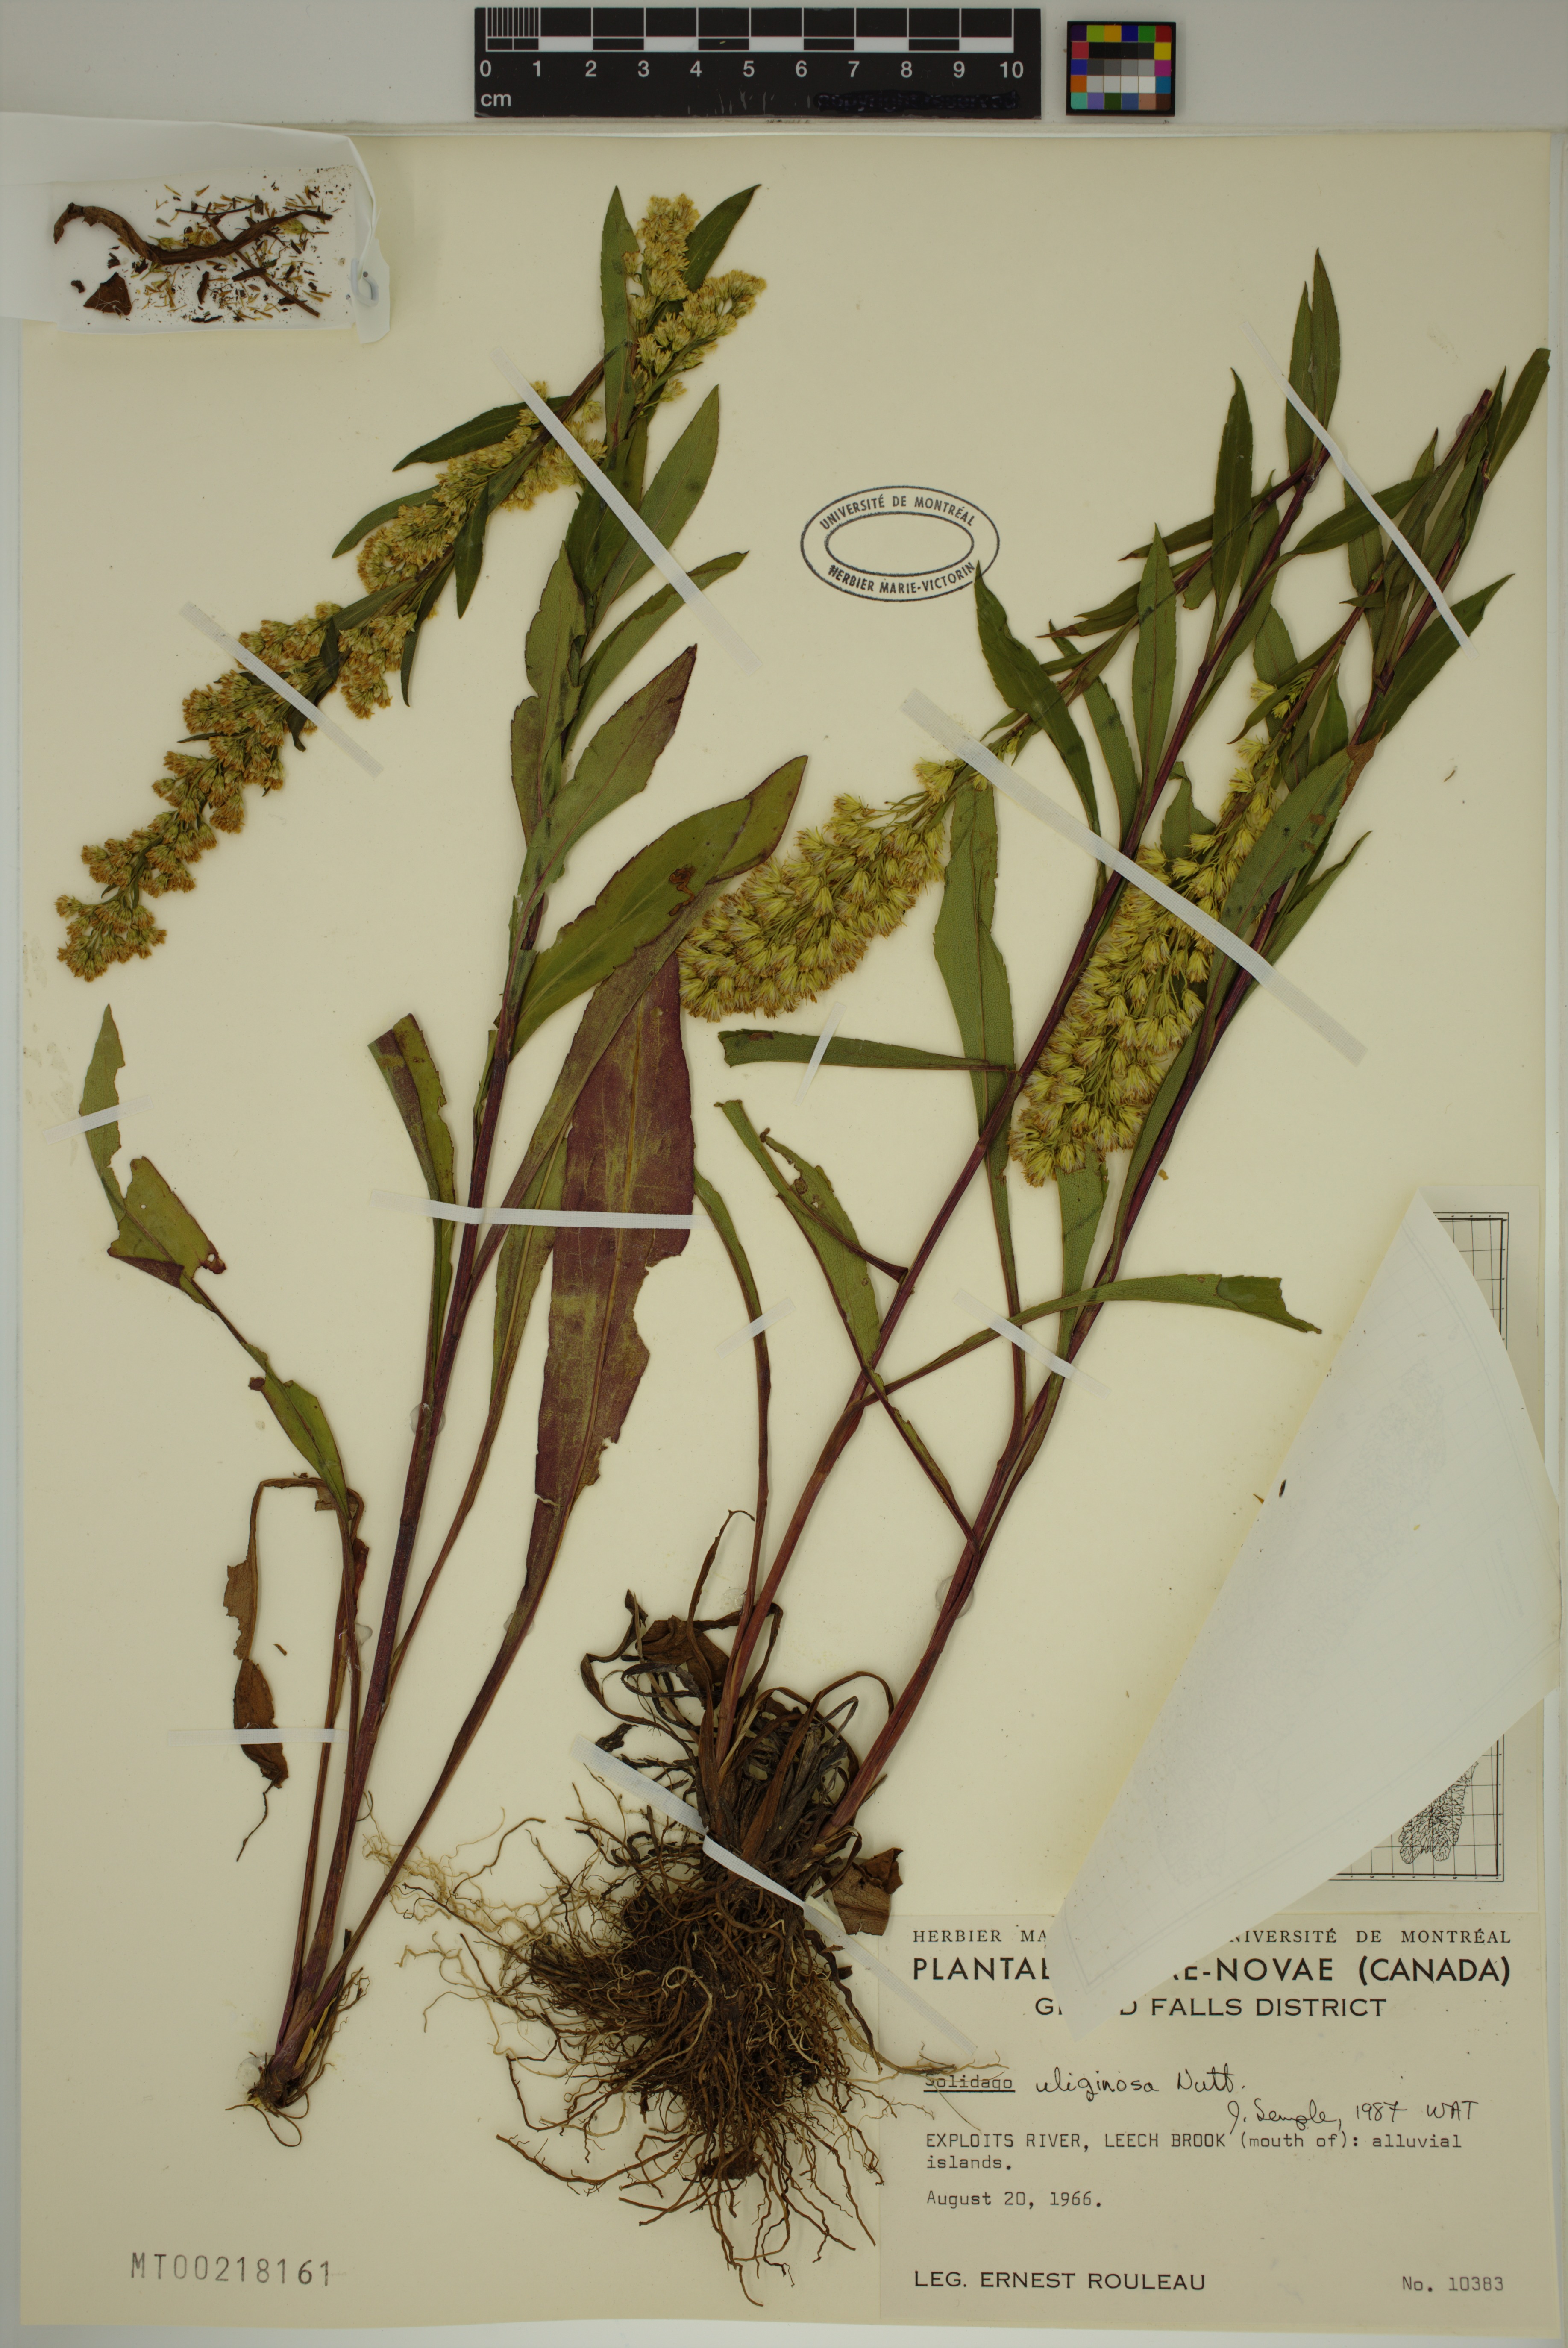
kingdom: Plantae
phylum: Tracheophyta
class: Magnoliopsida
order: Asterales
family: Asteraceae
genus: Solidago
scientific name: Solidago uliginosa
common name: Bog goldenrod
